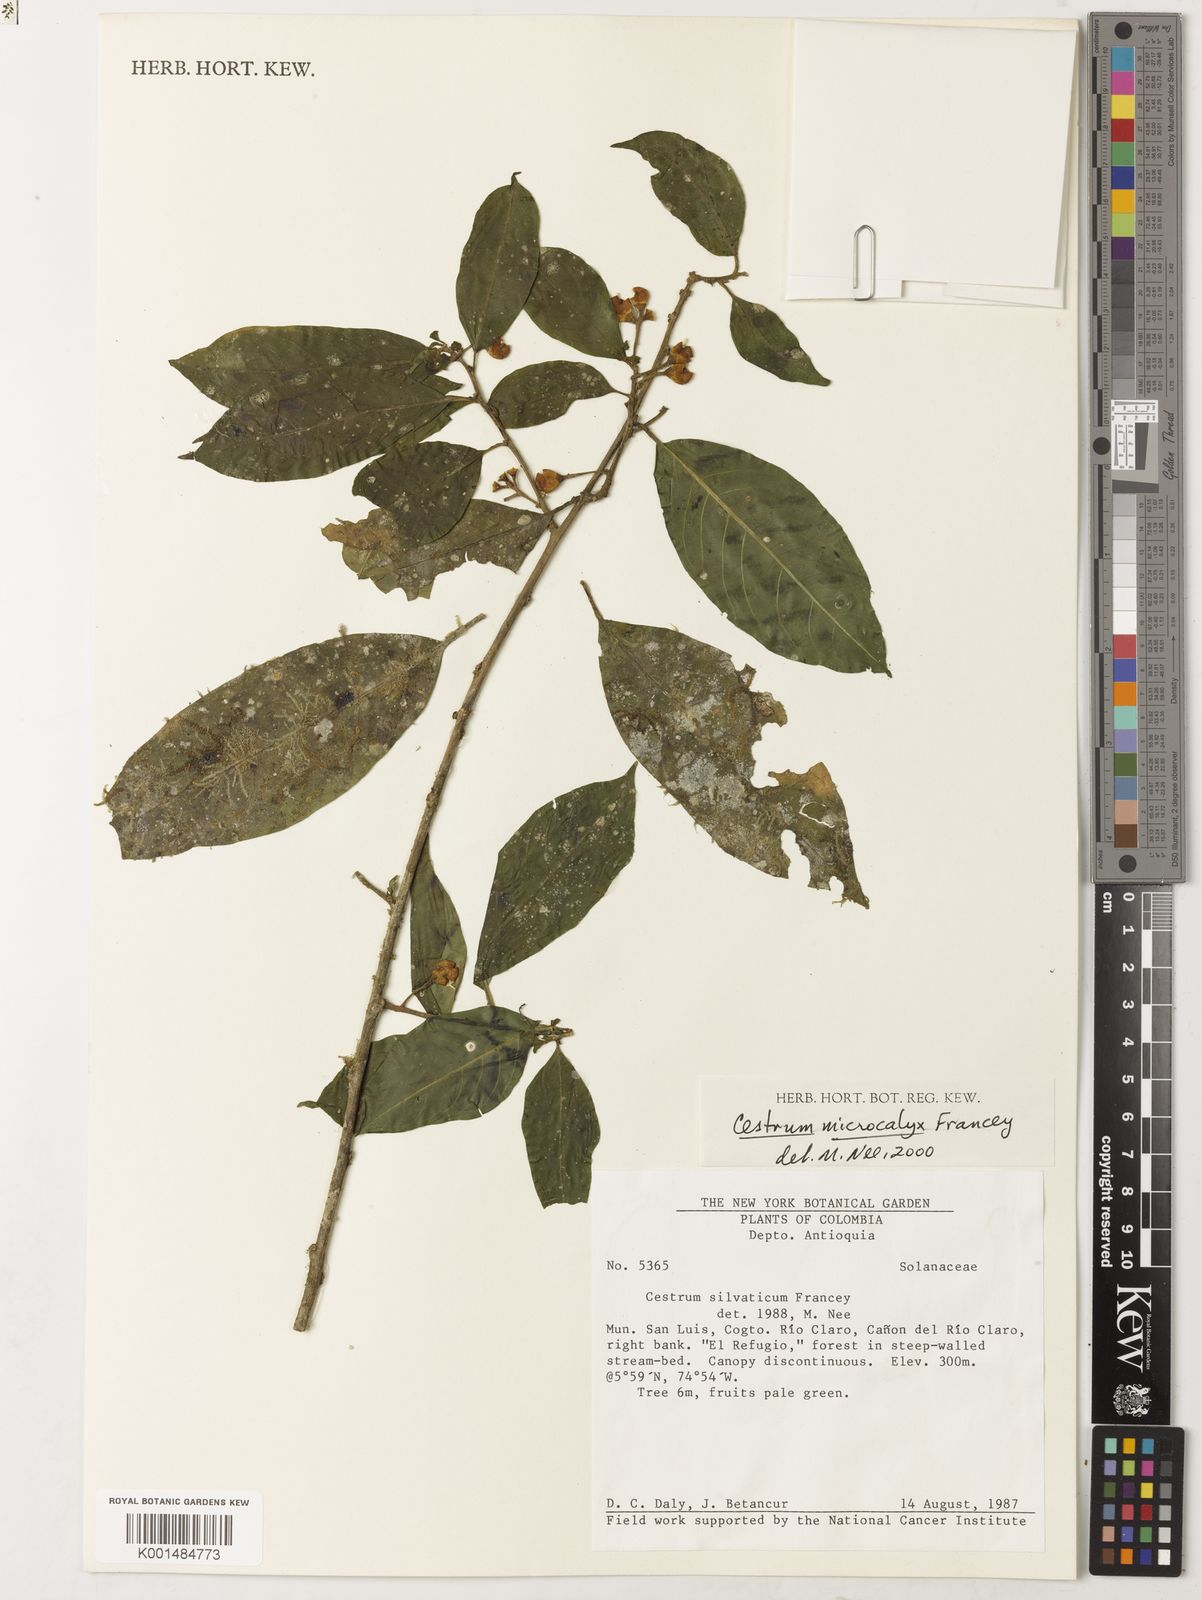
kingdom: Plantae
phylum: Tracheophyta
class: Magnoliopsida
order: Solanales
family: Solanaceae
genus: Cestrum
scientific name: Cestrum microcalyx
